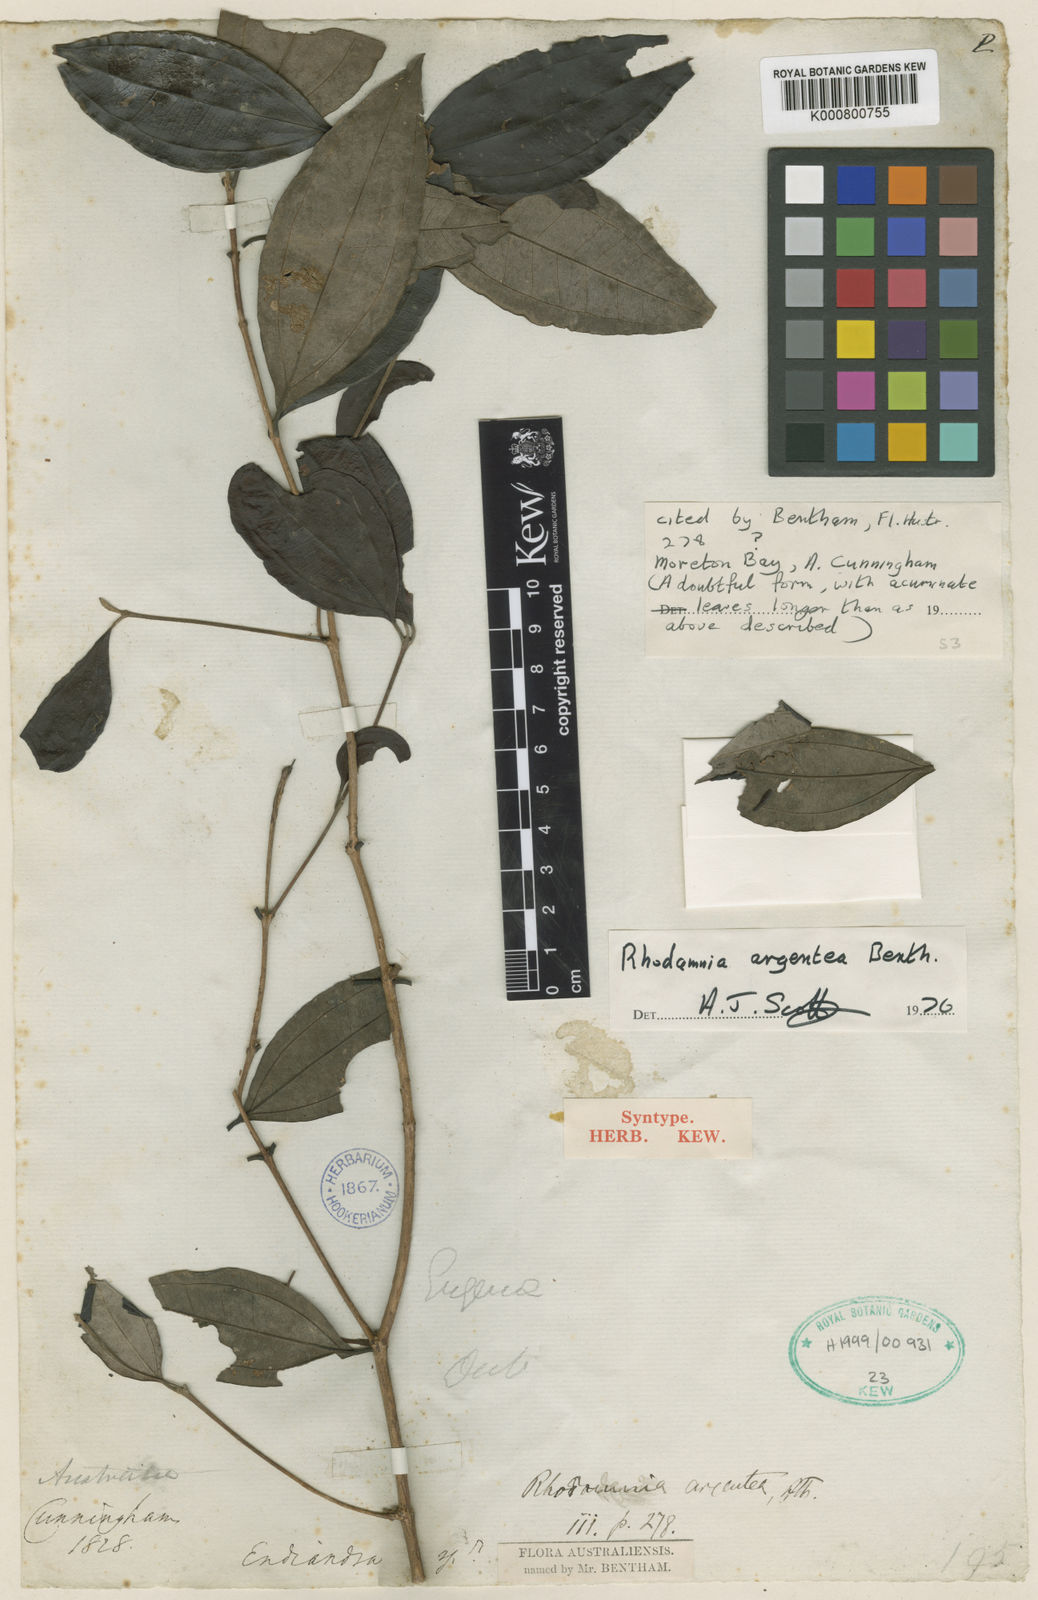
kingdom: Plantae
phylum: Tracheophyta
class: Magnoliopsida
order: Myrtales
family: Myrtaceae
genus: Rhodamnia
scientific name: Rhodamnia argentea
